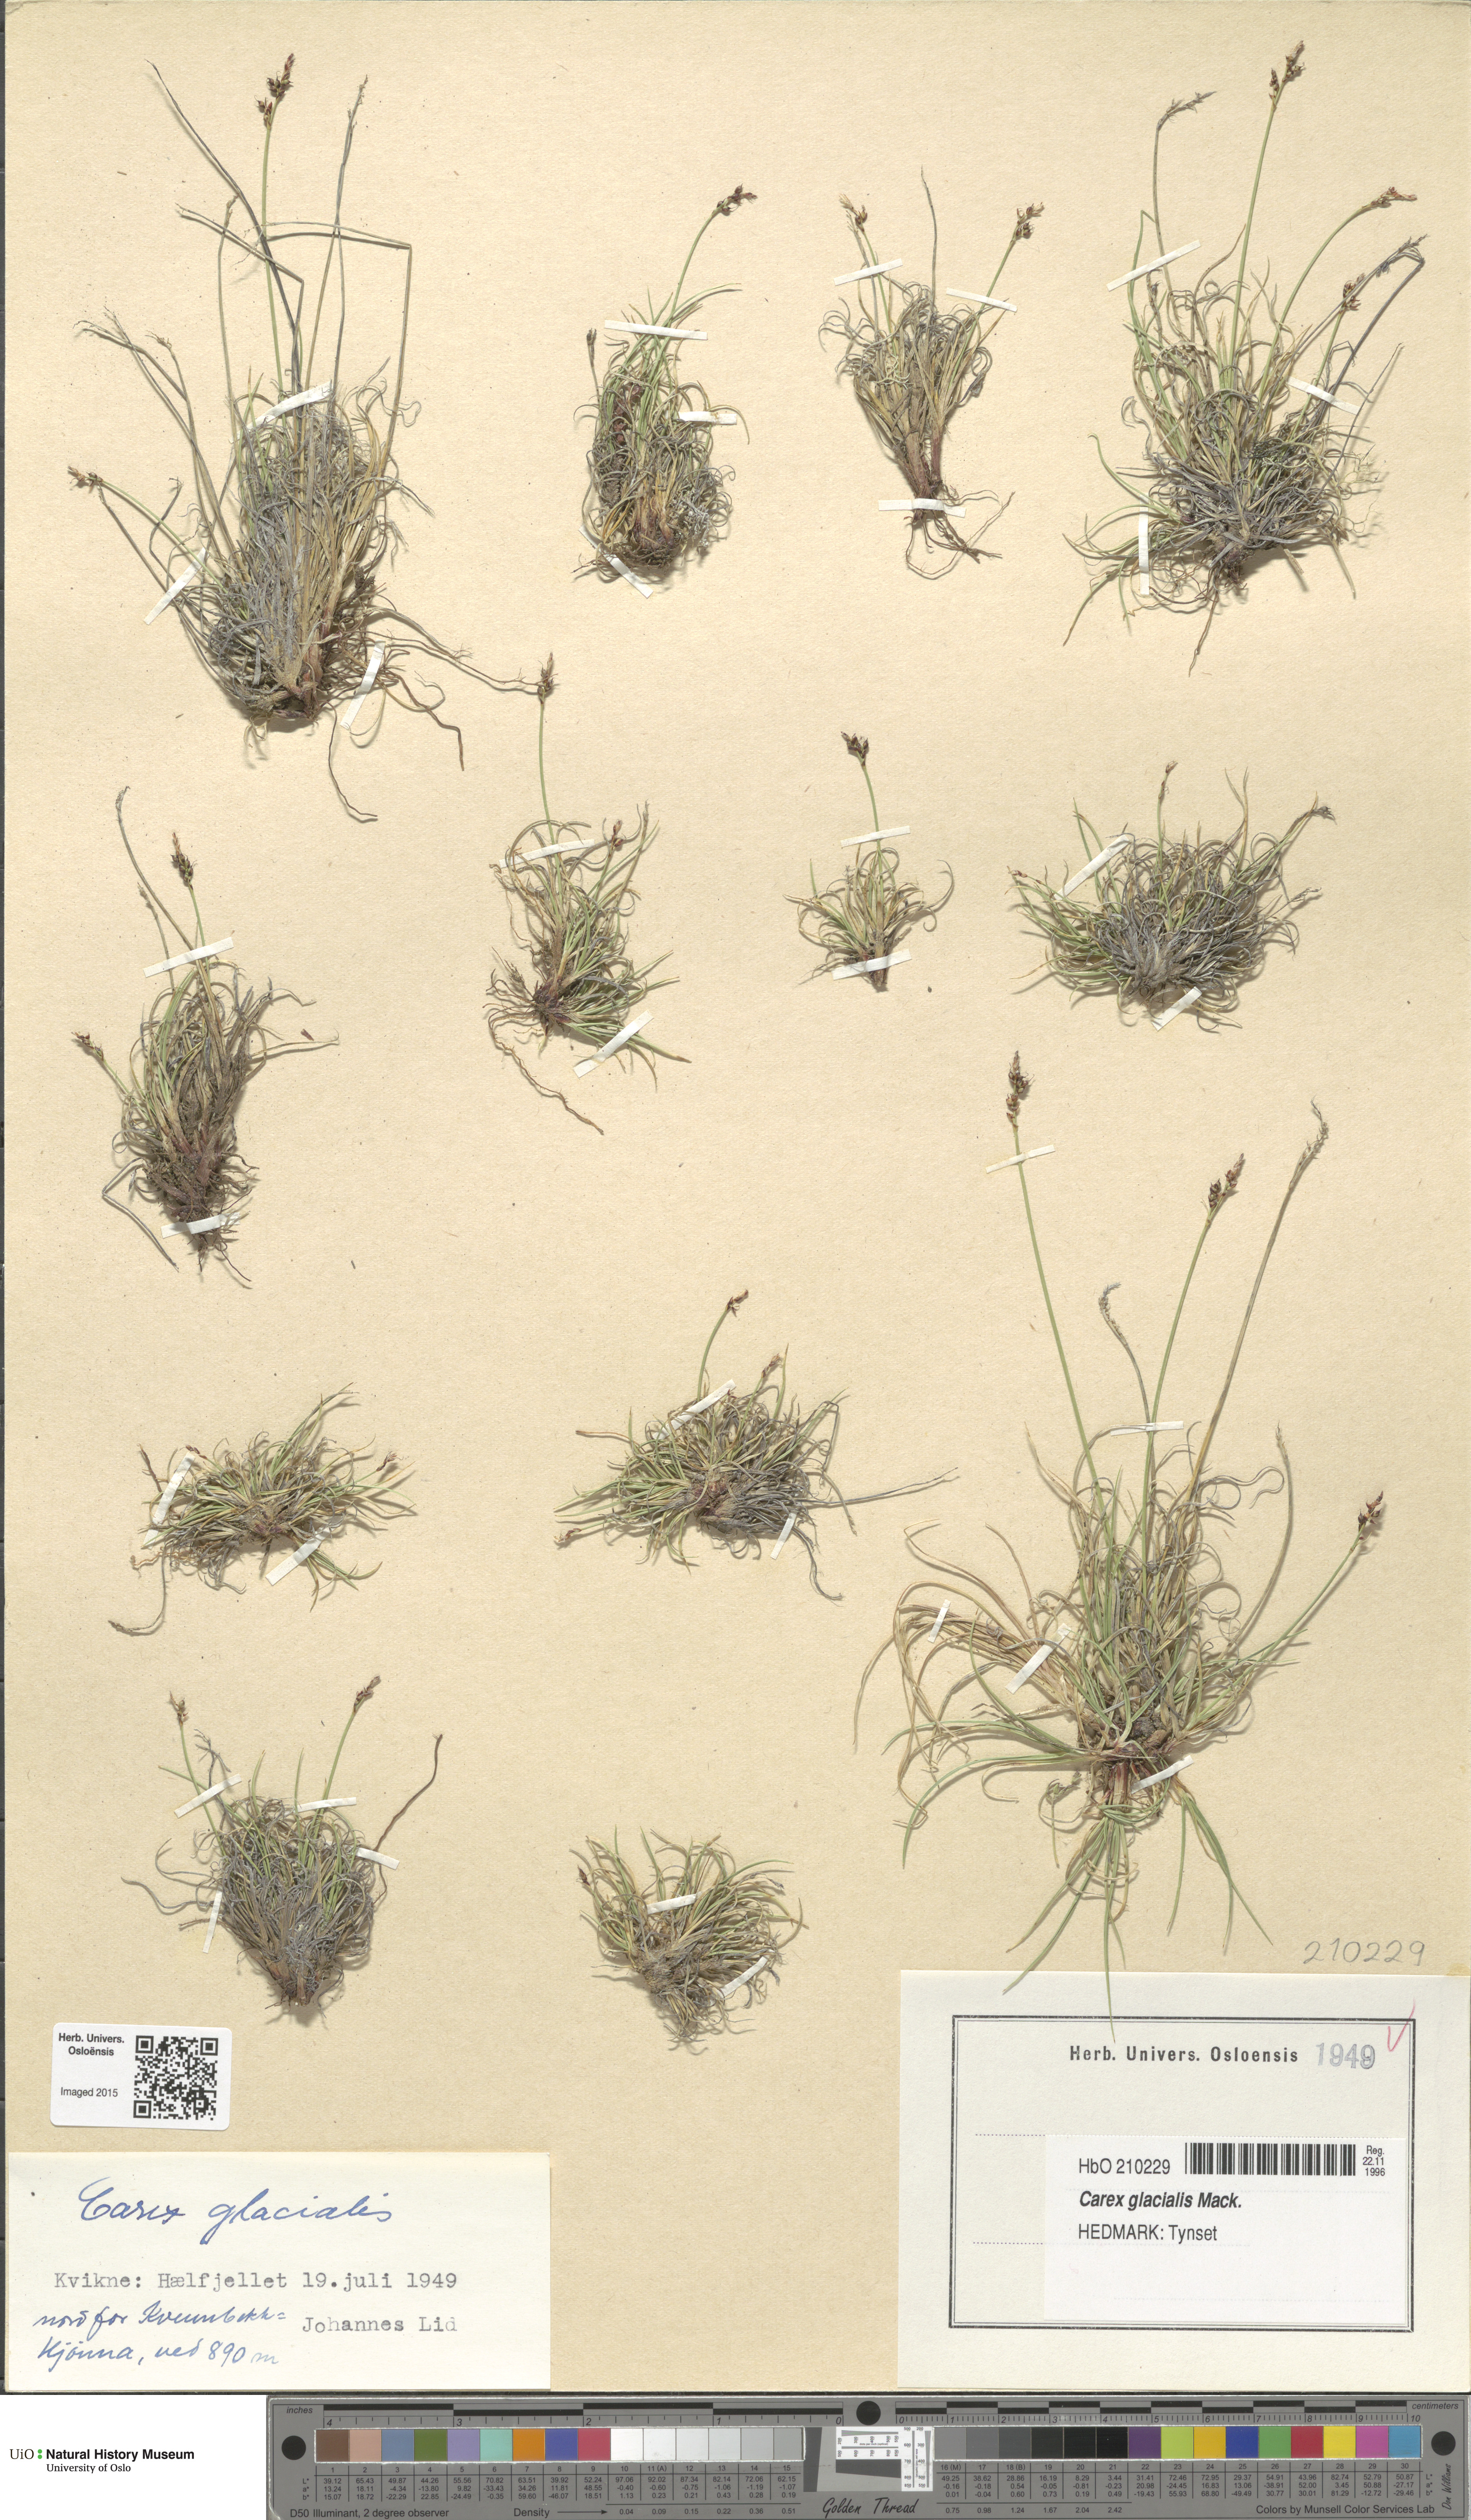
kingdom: Plantae
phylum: Tracheophyta
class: Liliopsida
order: Poales
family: Cyperaceae
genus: Carex
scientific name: Carex glacialis
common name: Newfoundland sedge
